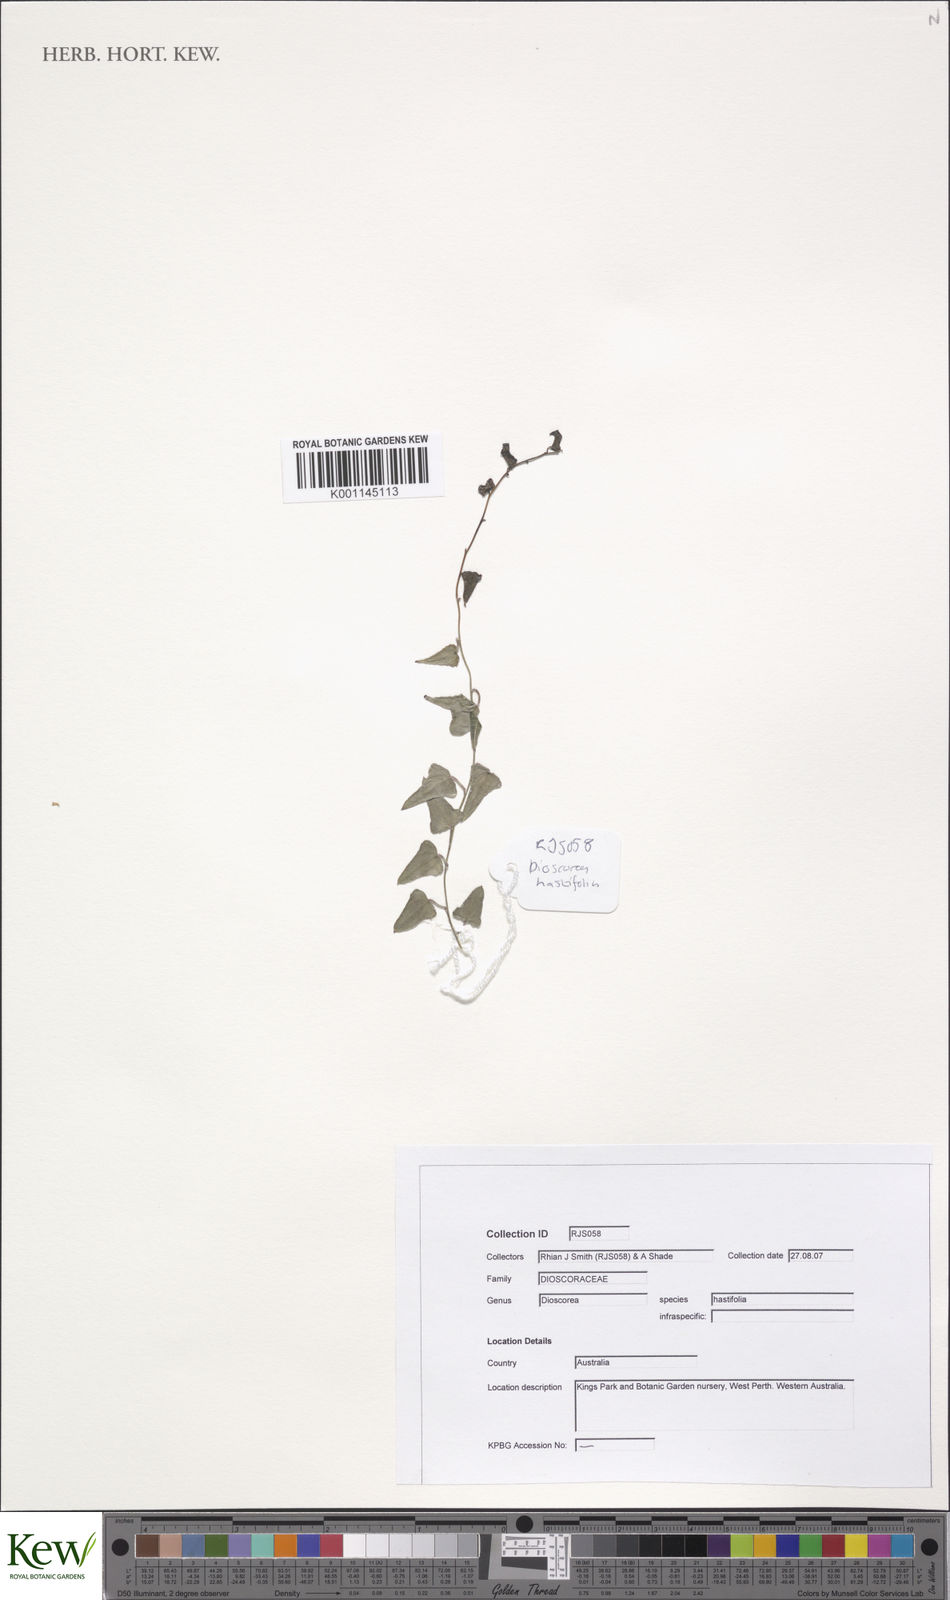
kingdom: Plantae
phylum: Tracheophyta
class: Liliopsida
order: Dioscoreales
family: Dioscoreaceae
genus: Dioscorea
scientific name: Dioscorea hastifolia
